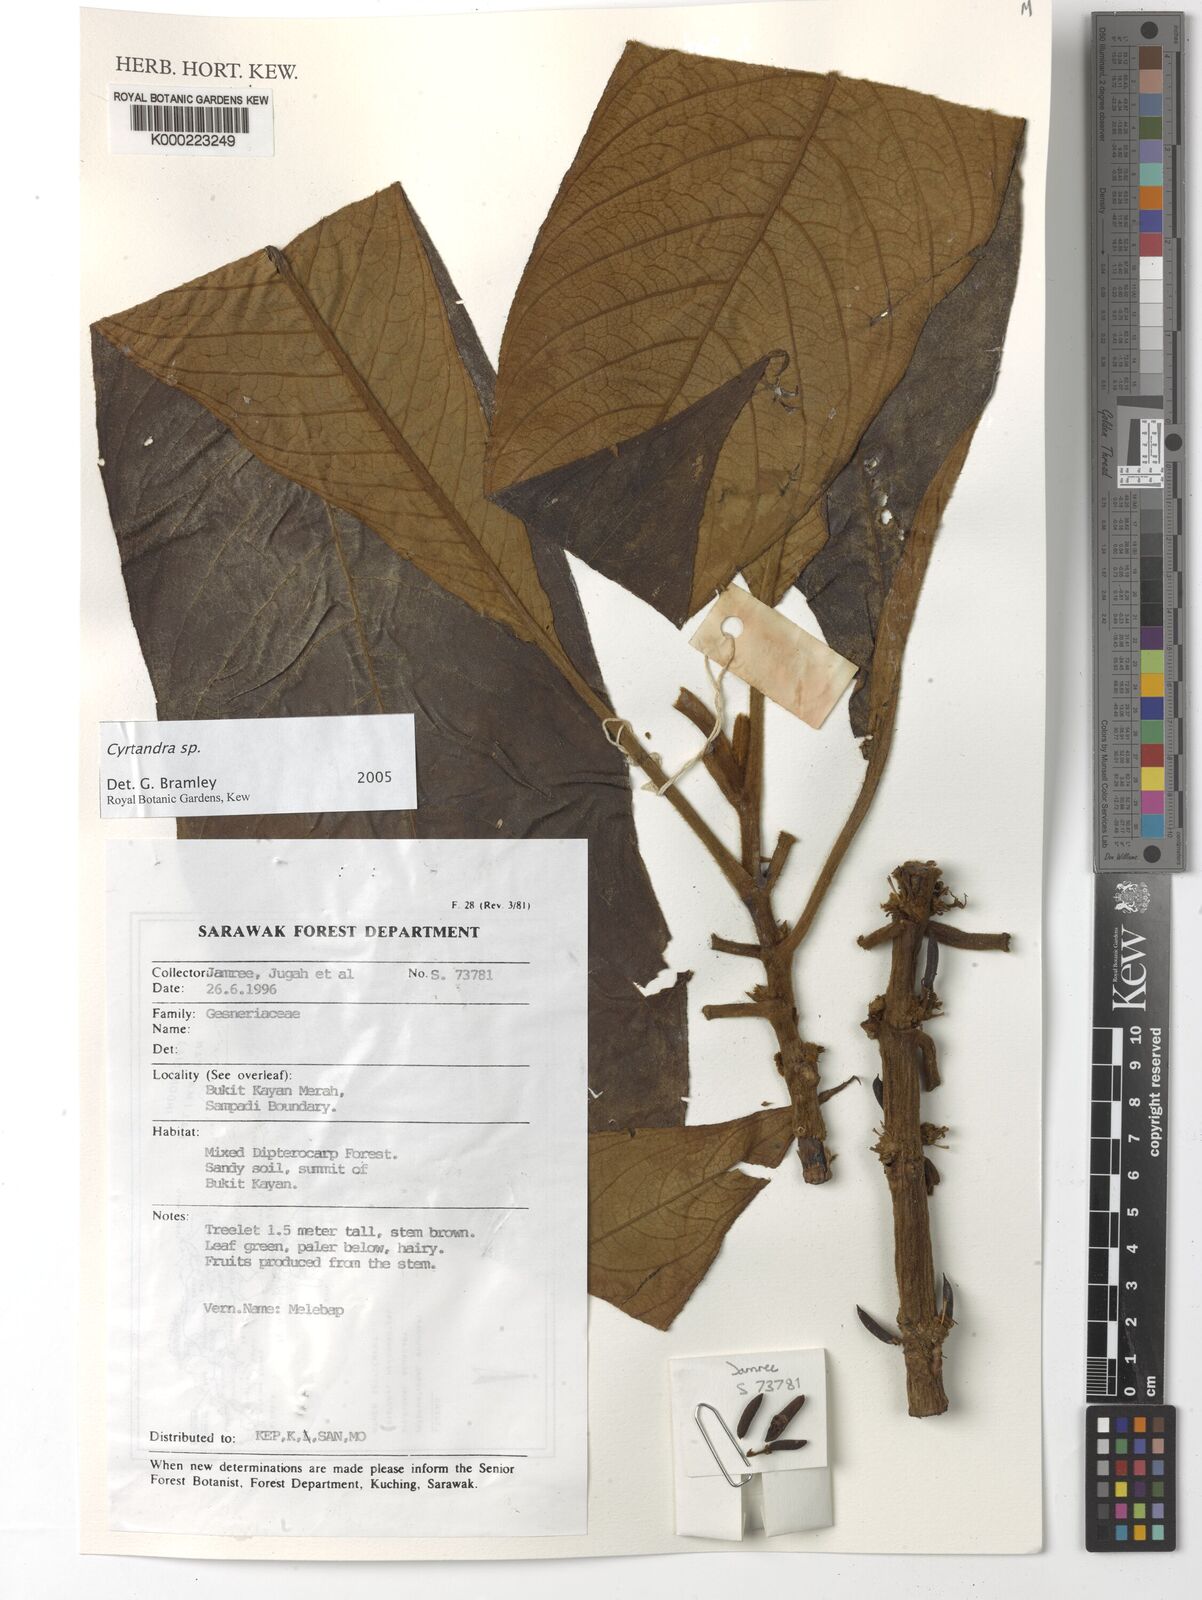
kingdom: Plantae
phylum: Tracheophyta
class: Magnoliopsida
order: Lamiales
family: Gesneriaceae
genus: Cyrtandra
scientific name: Cyrtandra
